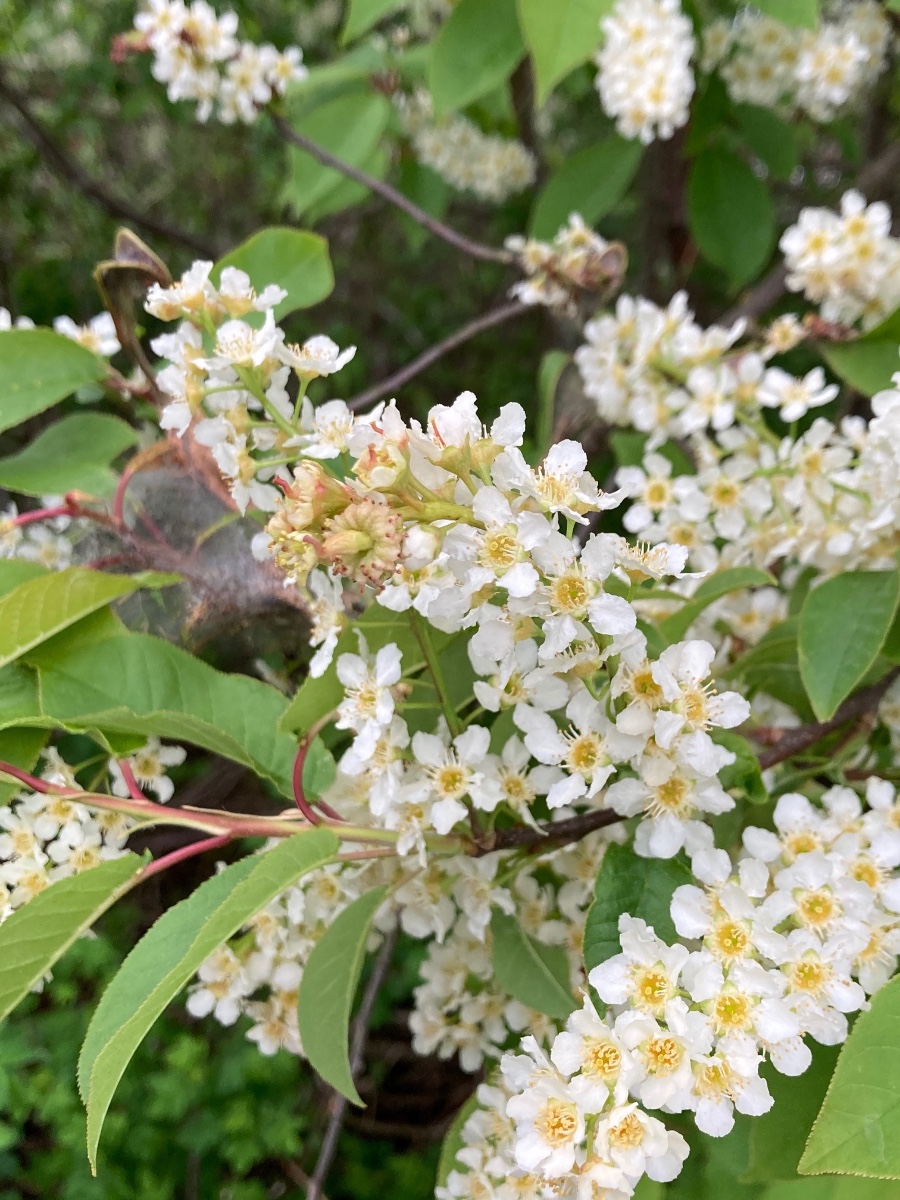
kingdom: Fungi
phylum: Ascomycota
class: Taphrinomycetes
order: Taphrinales
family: Taphrinaceae
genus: Taphrina
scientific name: Taphrina padi
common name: Bird cherry pocket
